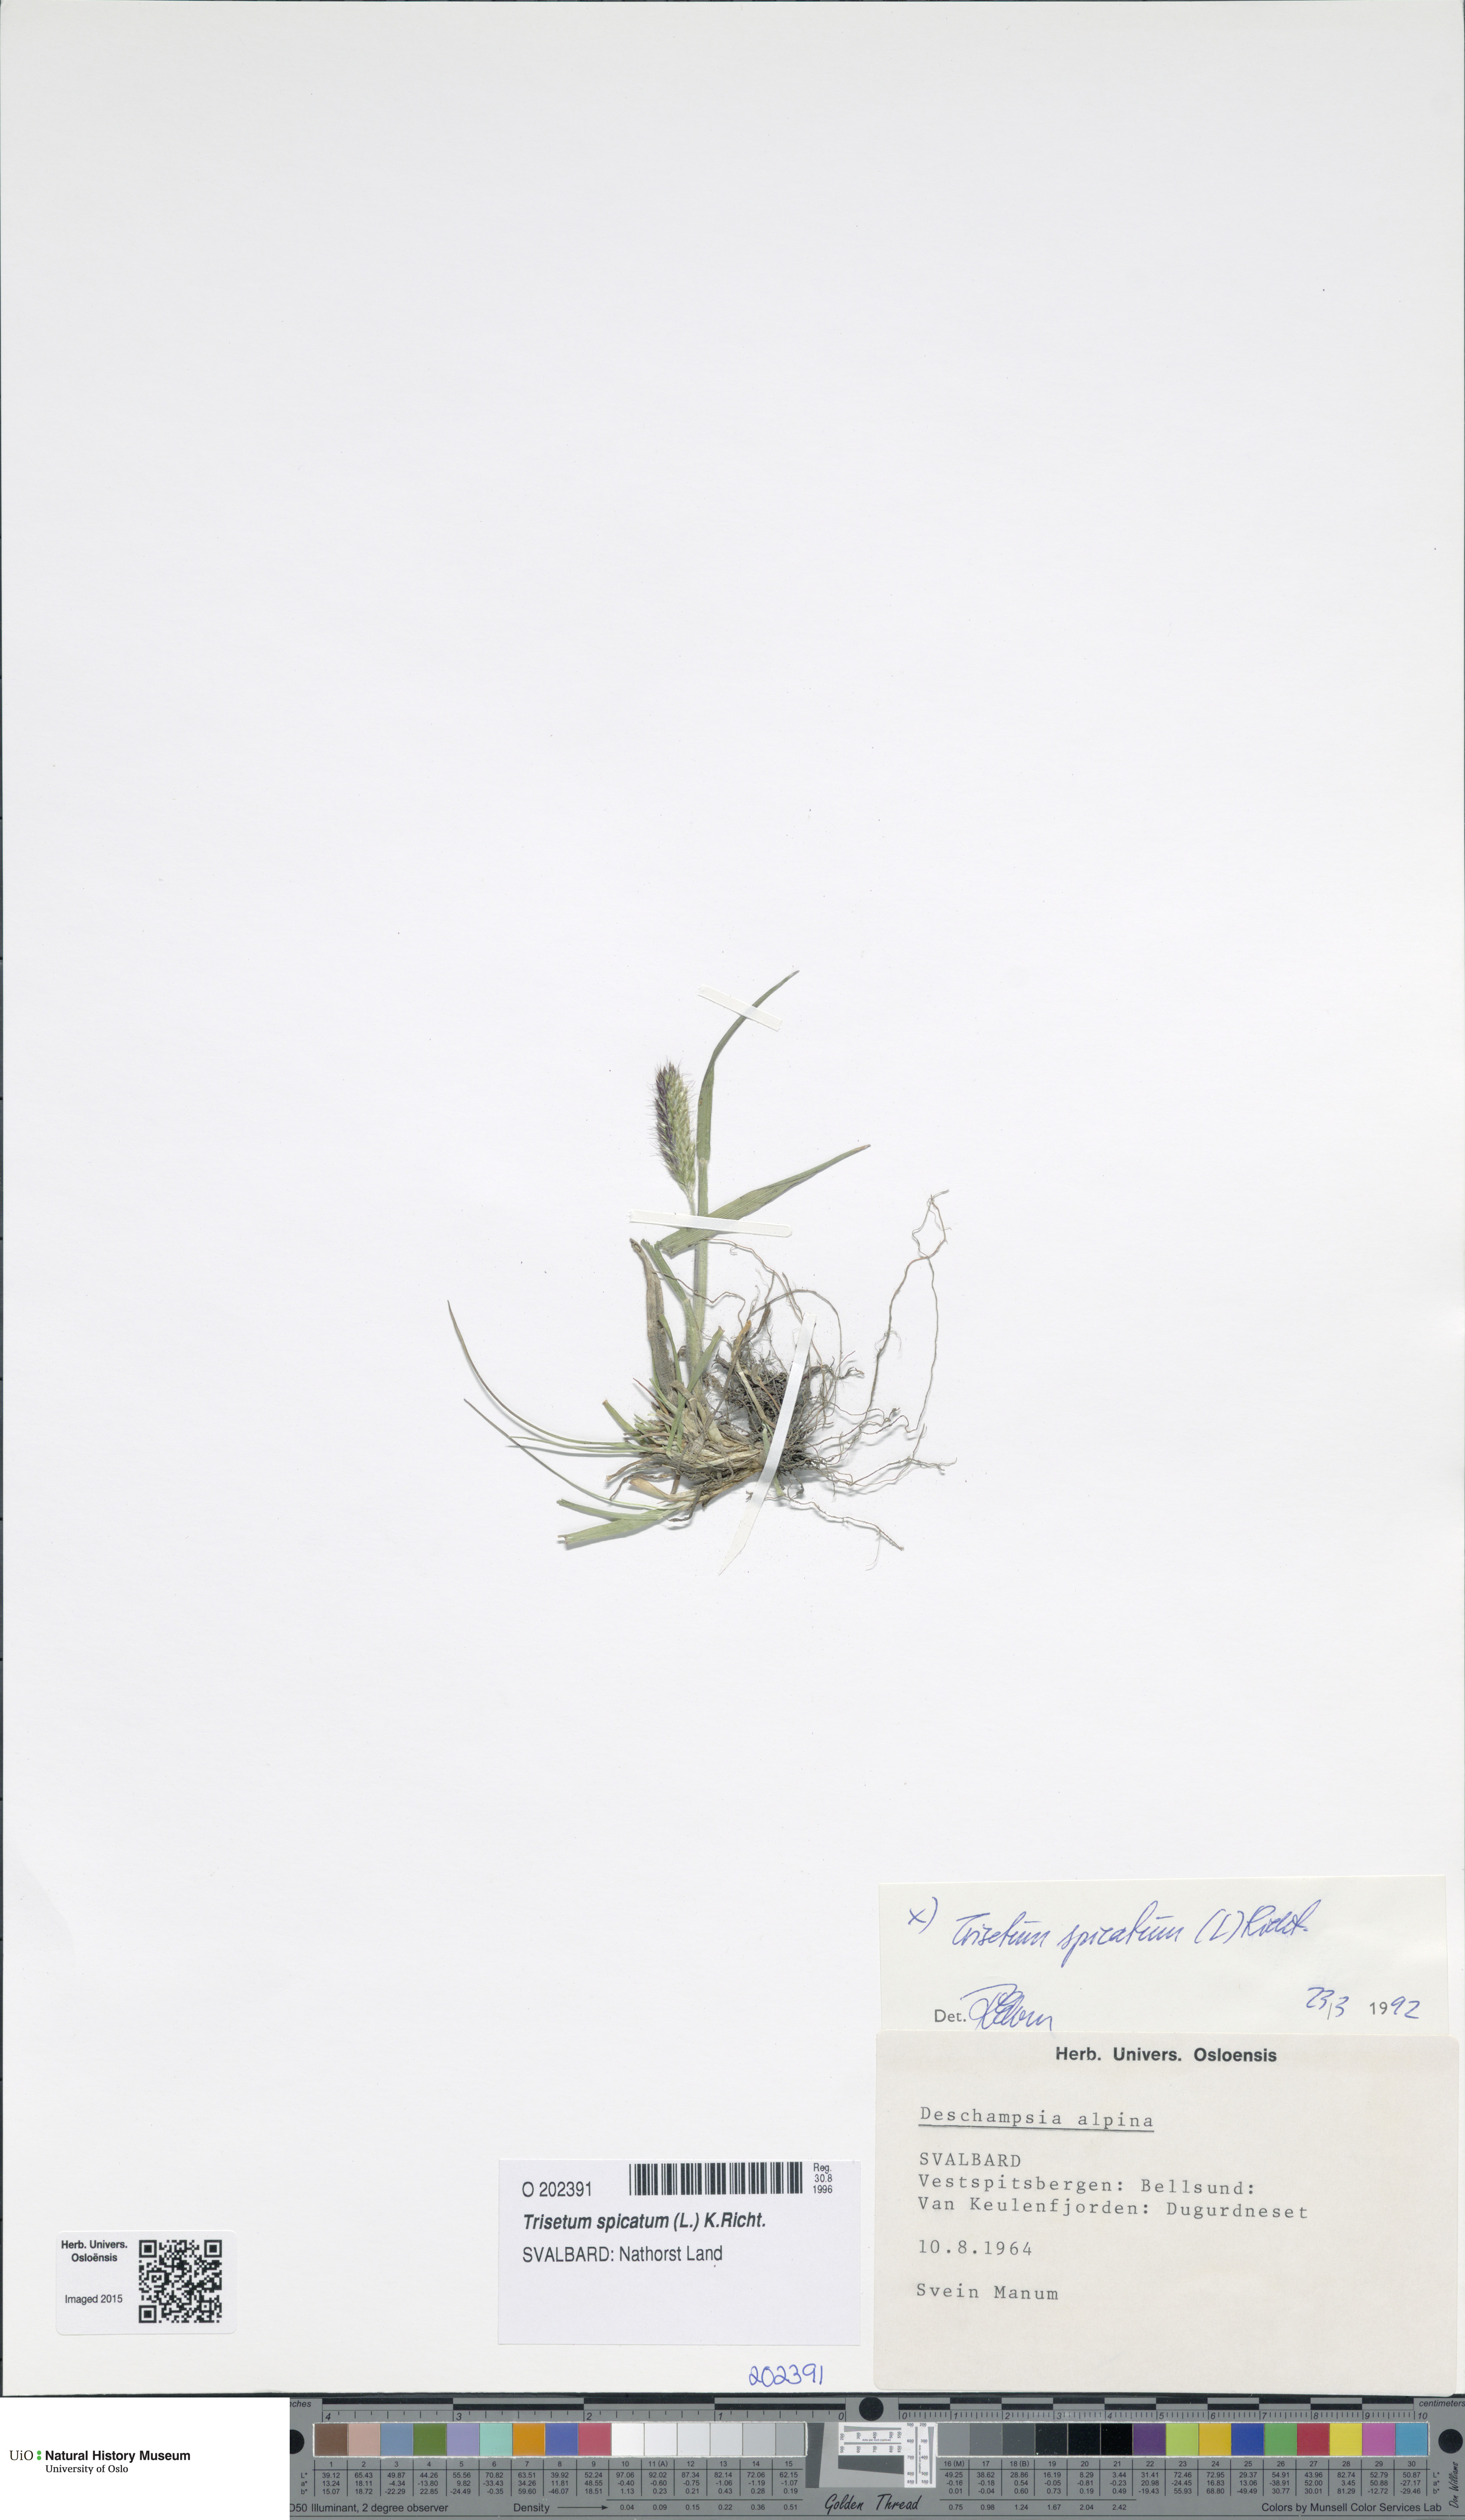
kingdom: Plantae
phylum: Tracheophyta
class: Liliopsida
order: Poales
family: Poaceae
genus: Koeleria
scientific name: Koeleria spicata
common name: Mountain trisetum
